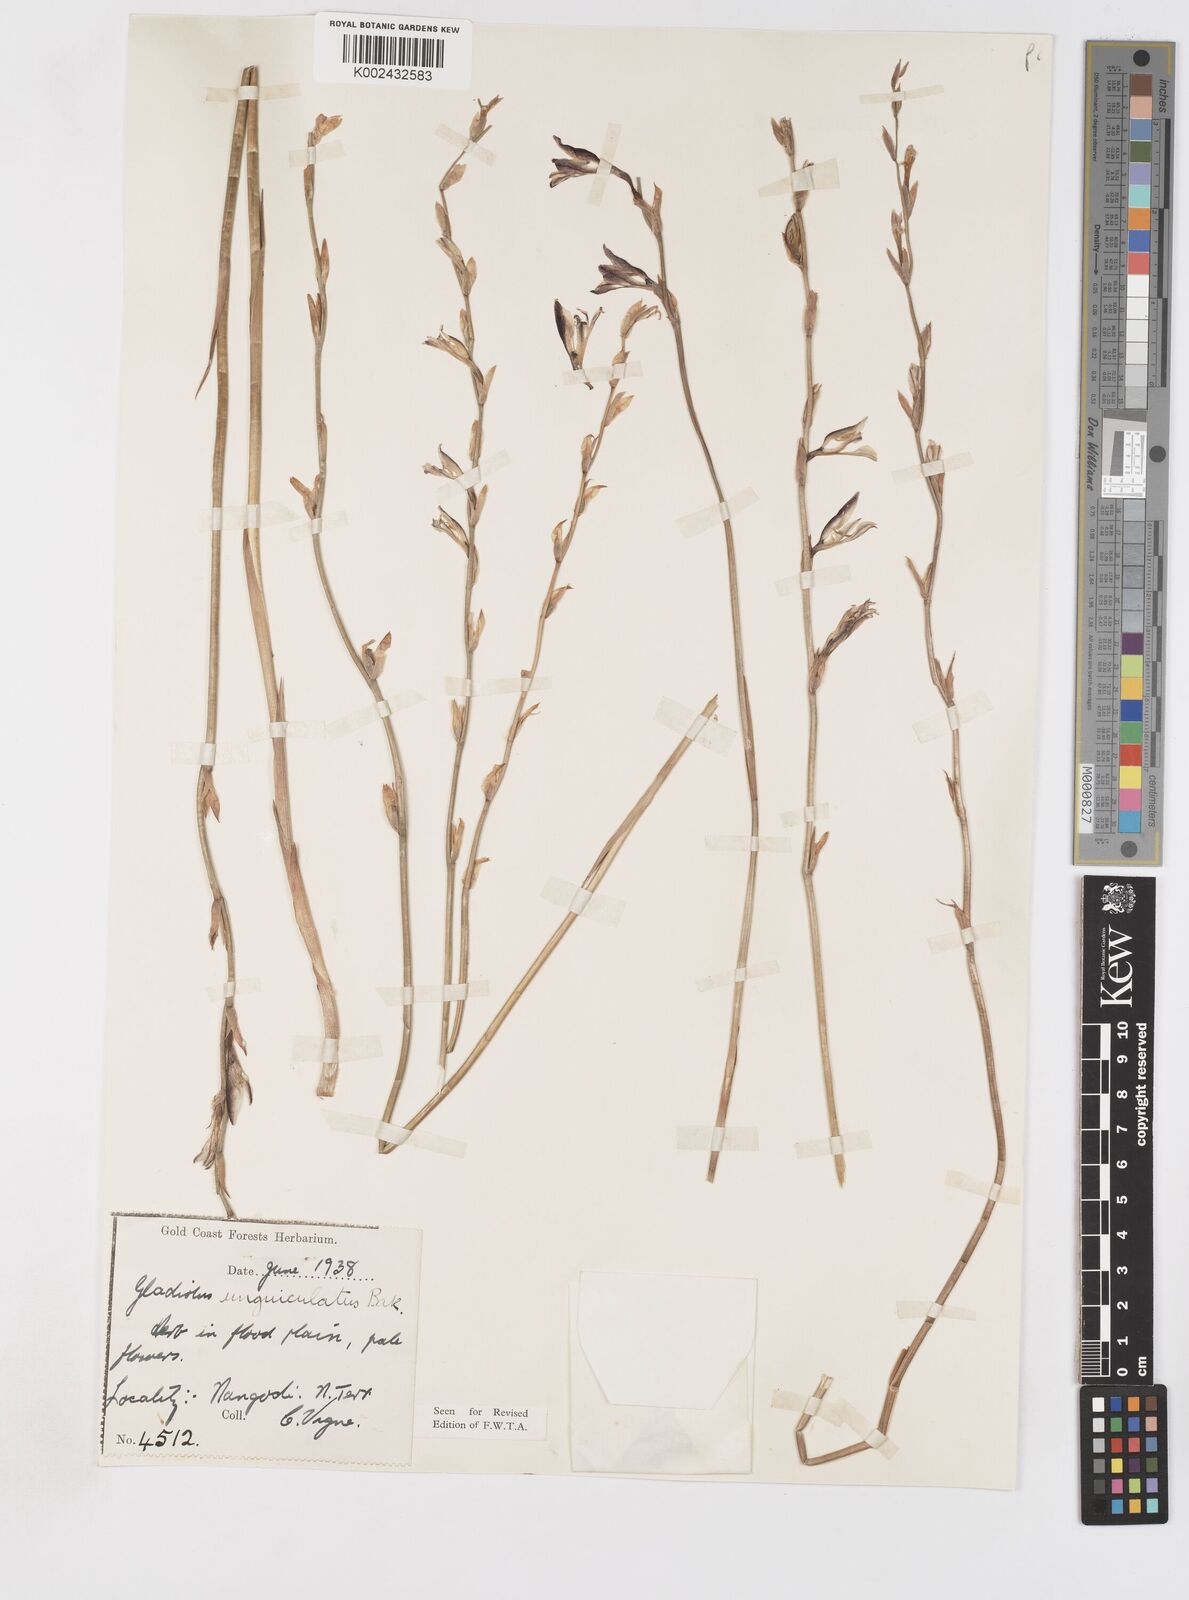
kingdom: Plantae
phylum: Tracheophyta
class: Liliopsida
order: Asparagales
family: Iridaceae
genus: Gladiolus
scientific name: Gladiolus unguiculatus
